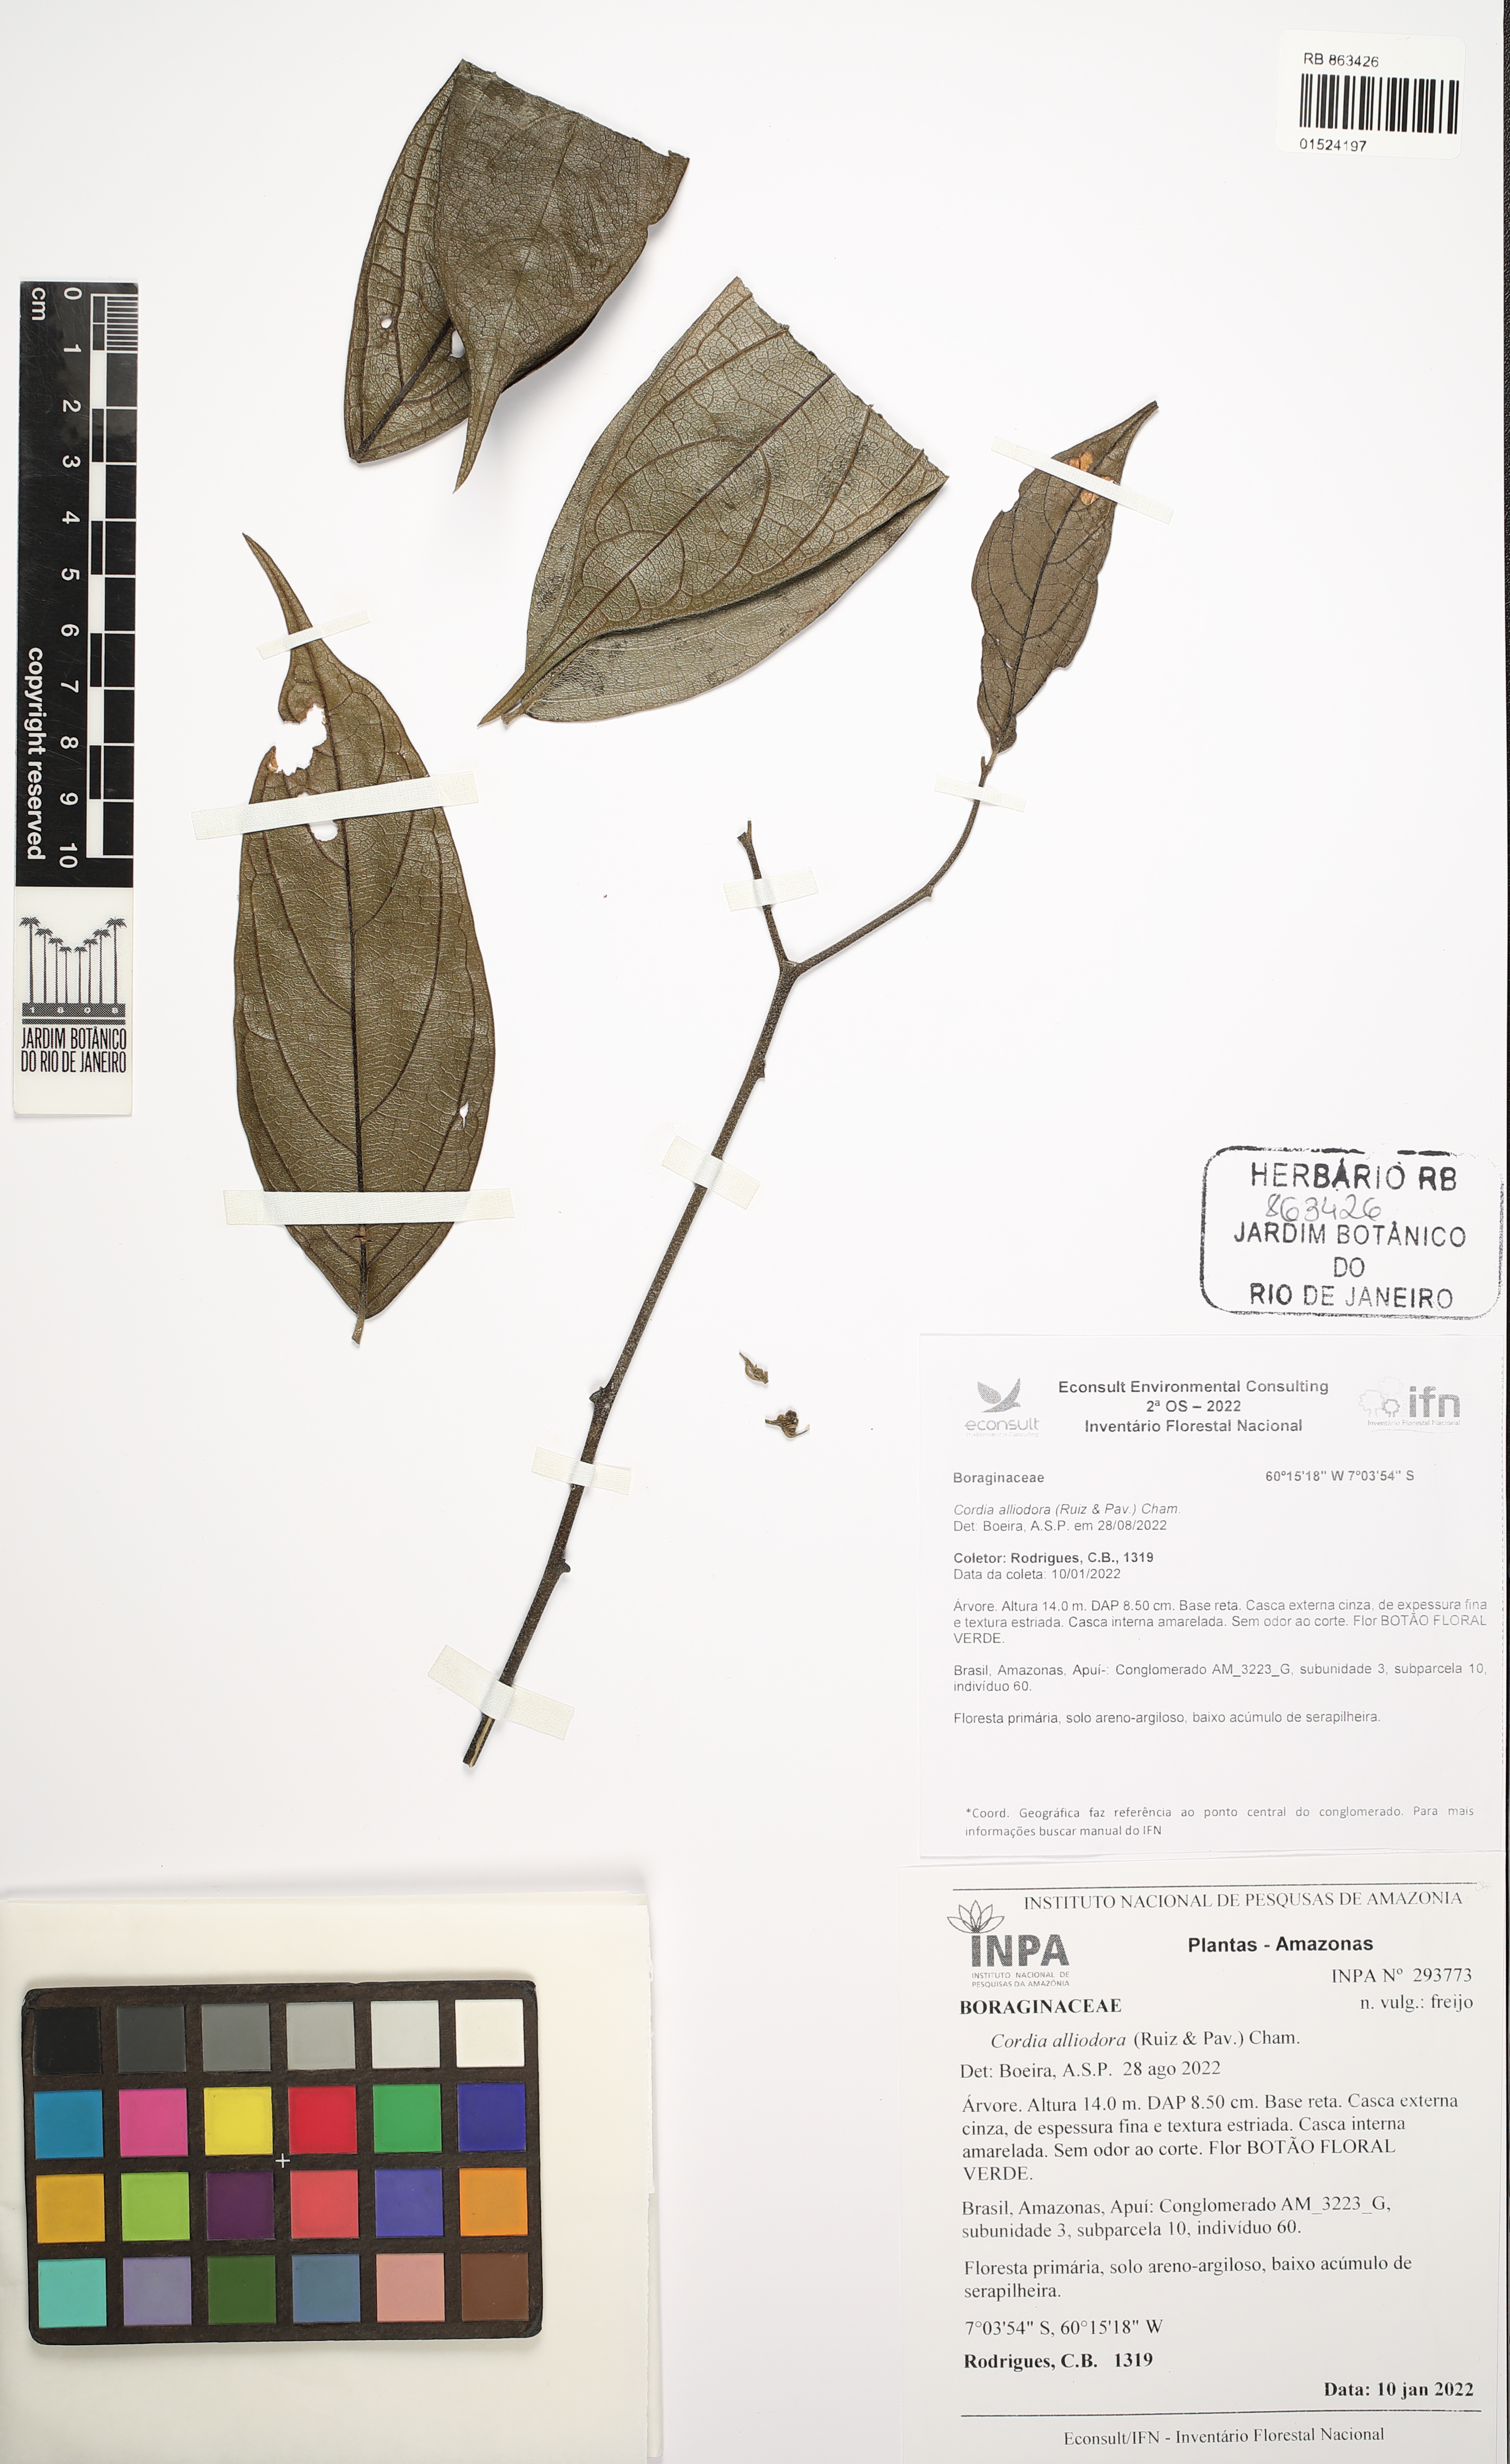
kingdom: Plantae
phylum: Tracheophyta
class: Magnoliopsida
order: Boraginales
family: Cordiaceae
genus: Cordia
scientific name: Cordia alliodora
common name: Spanish elm
